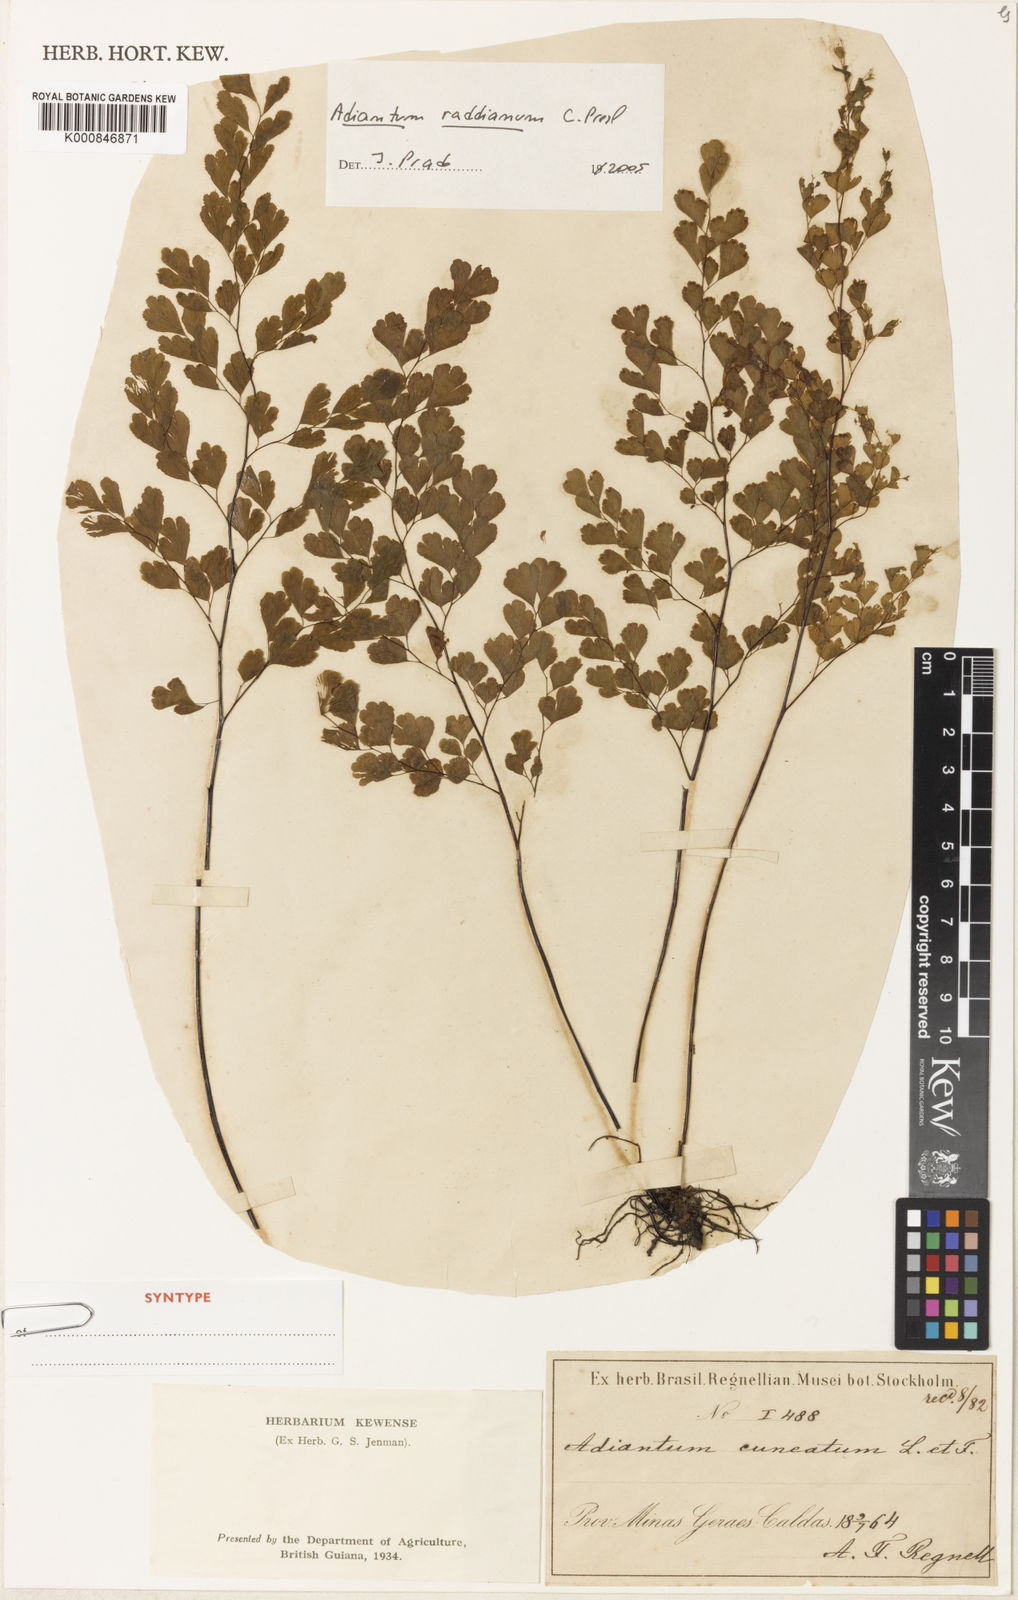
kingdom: Plantae
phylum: Tracheophyta
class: Polypodiopsida
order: Polypodiales
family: Pteridaceae
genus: Adiantum
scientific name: Adiantum raddianum
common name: Delta maidenhair fern
